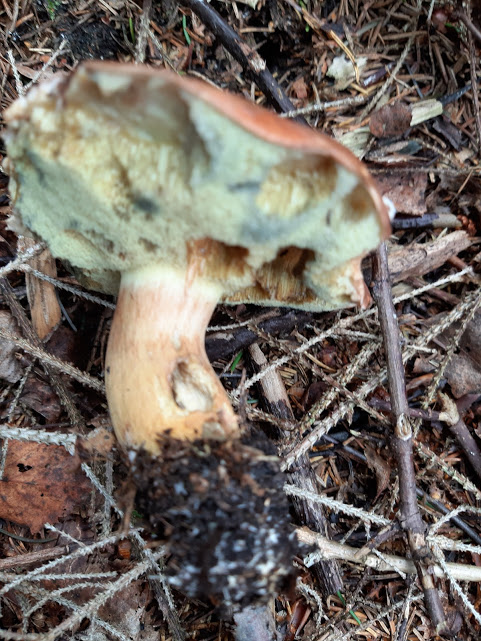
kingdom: Fungi
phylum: Basidiomycota
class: Agaricomycetes
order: Boletales
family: Boletaceae
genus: Imleria
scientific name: Imleria badia
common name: brunstokket rørhat
